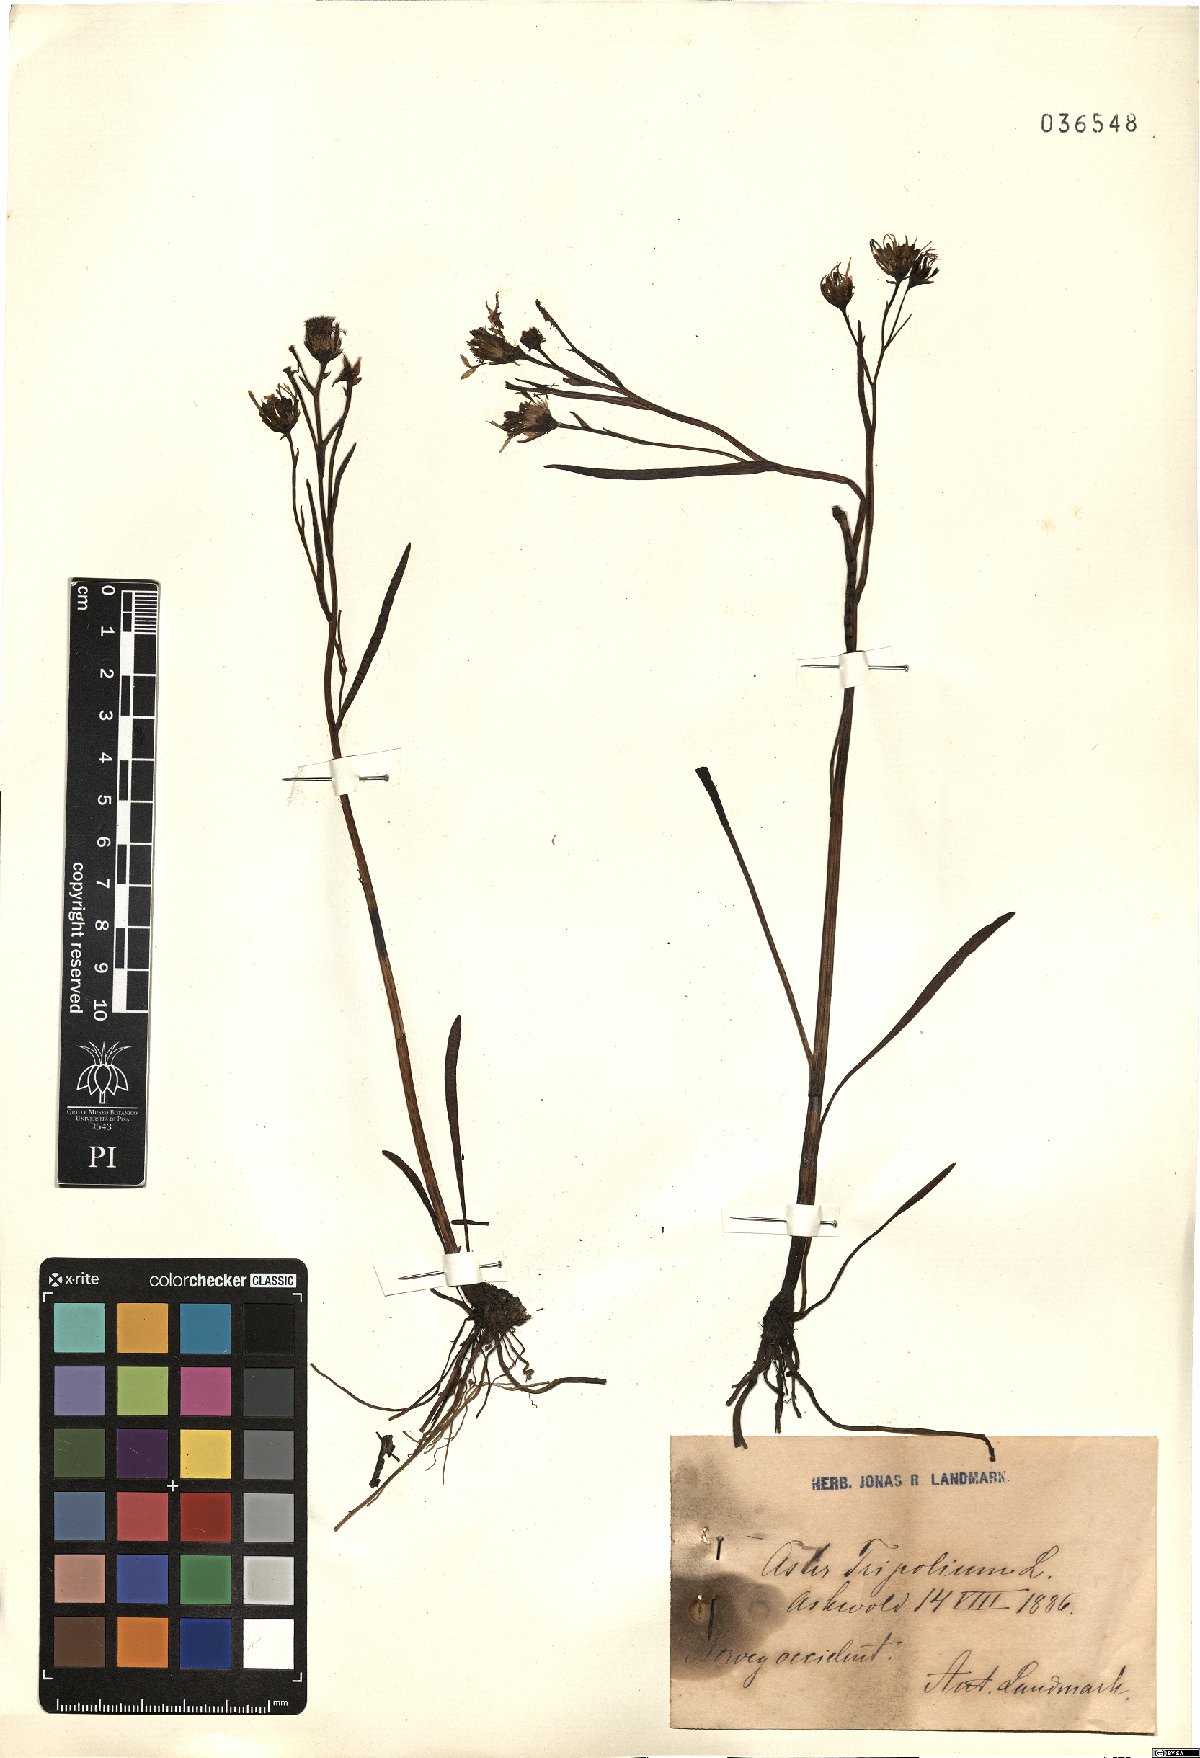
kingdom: Plantae
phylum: Tracheophyta
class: Magnoliopsida
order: Asterales
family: Asteraceae
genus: Tripolium
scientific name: Tripolium pannonicum
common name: Sea aster
